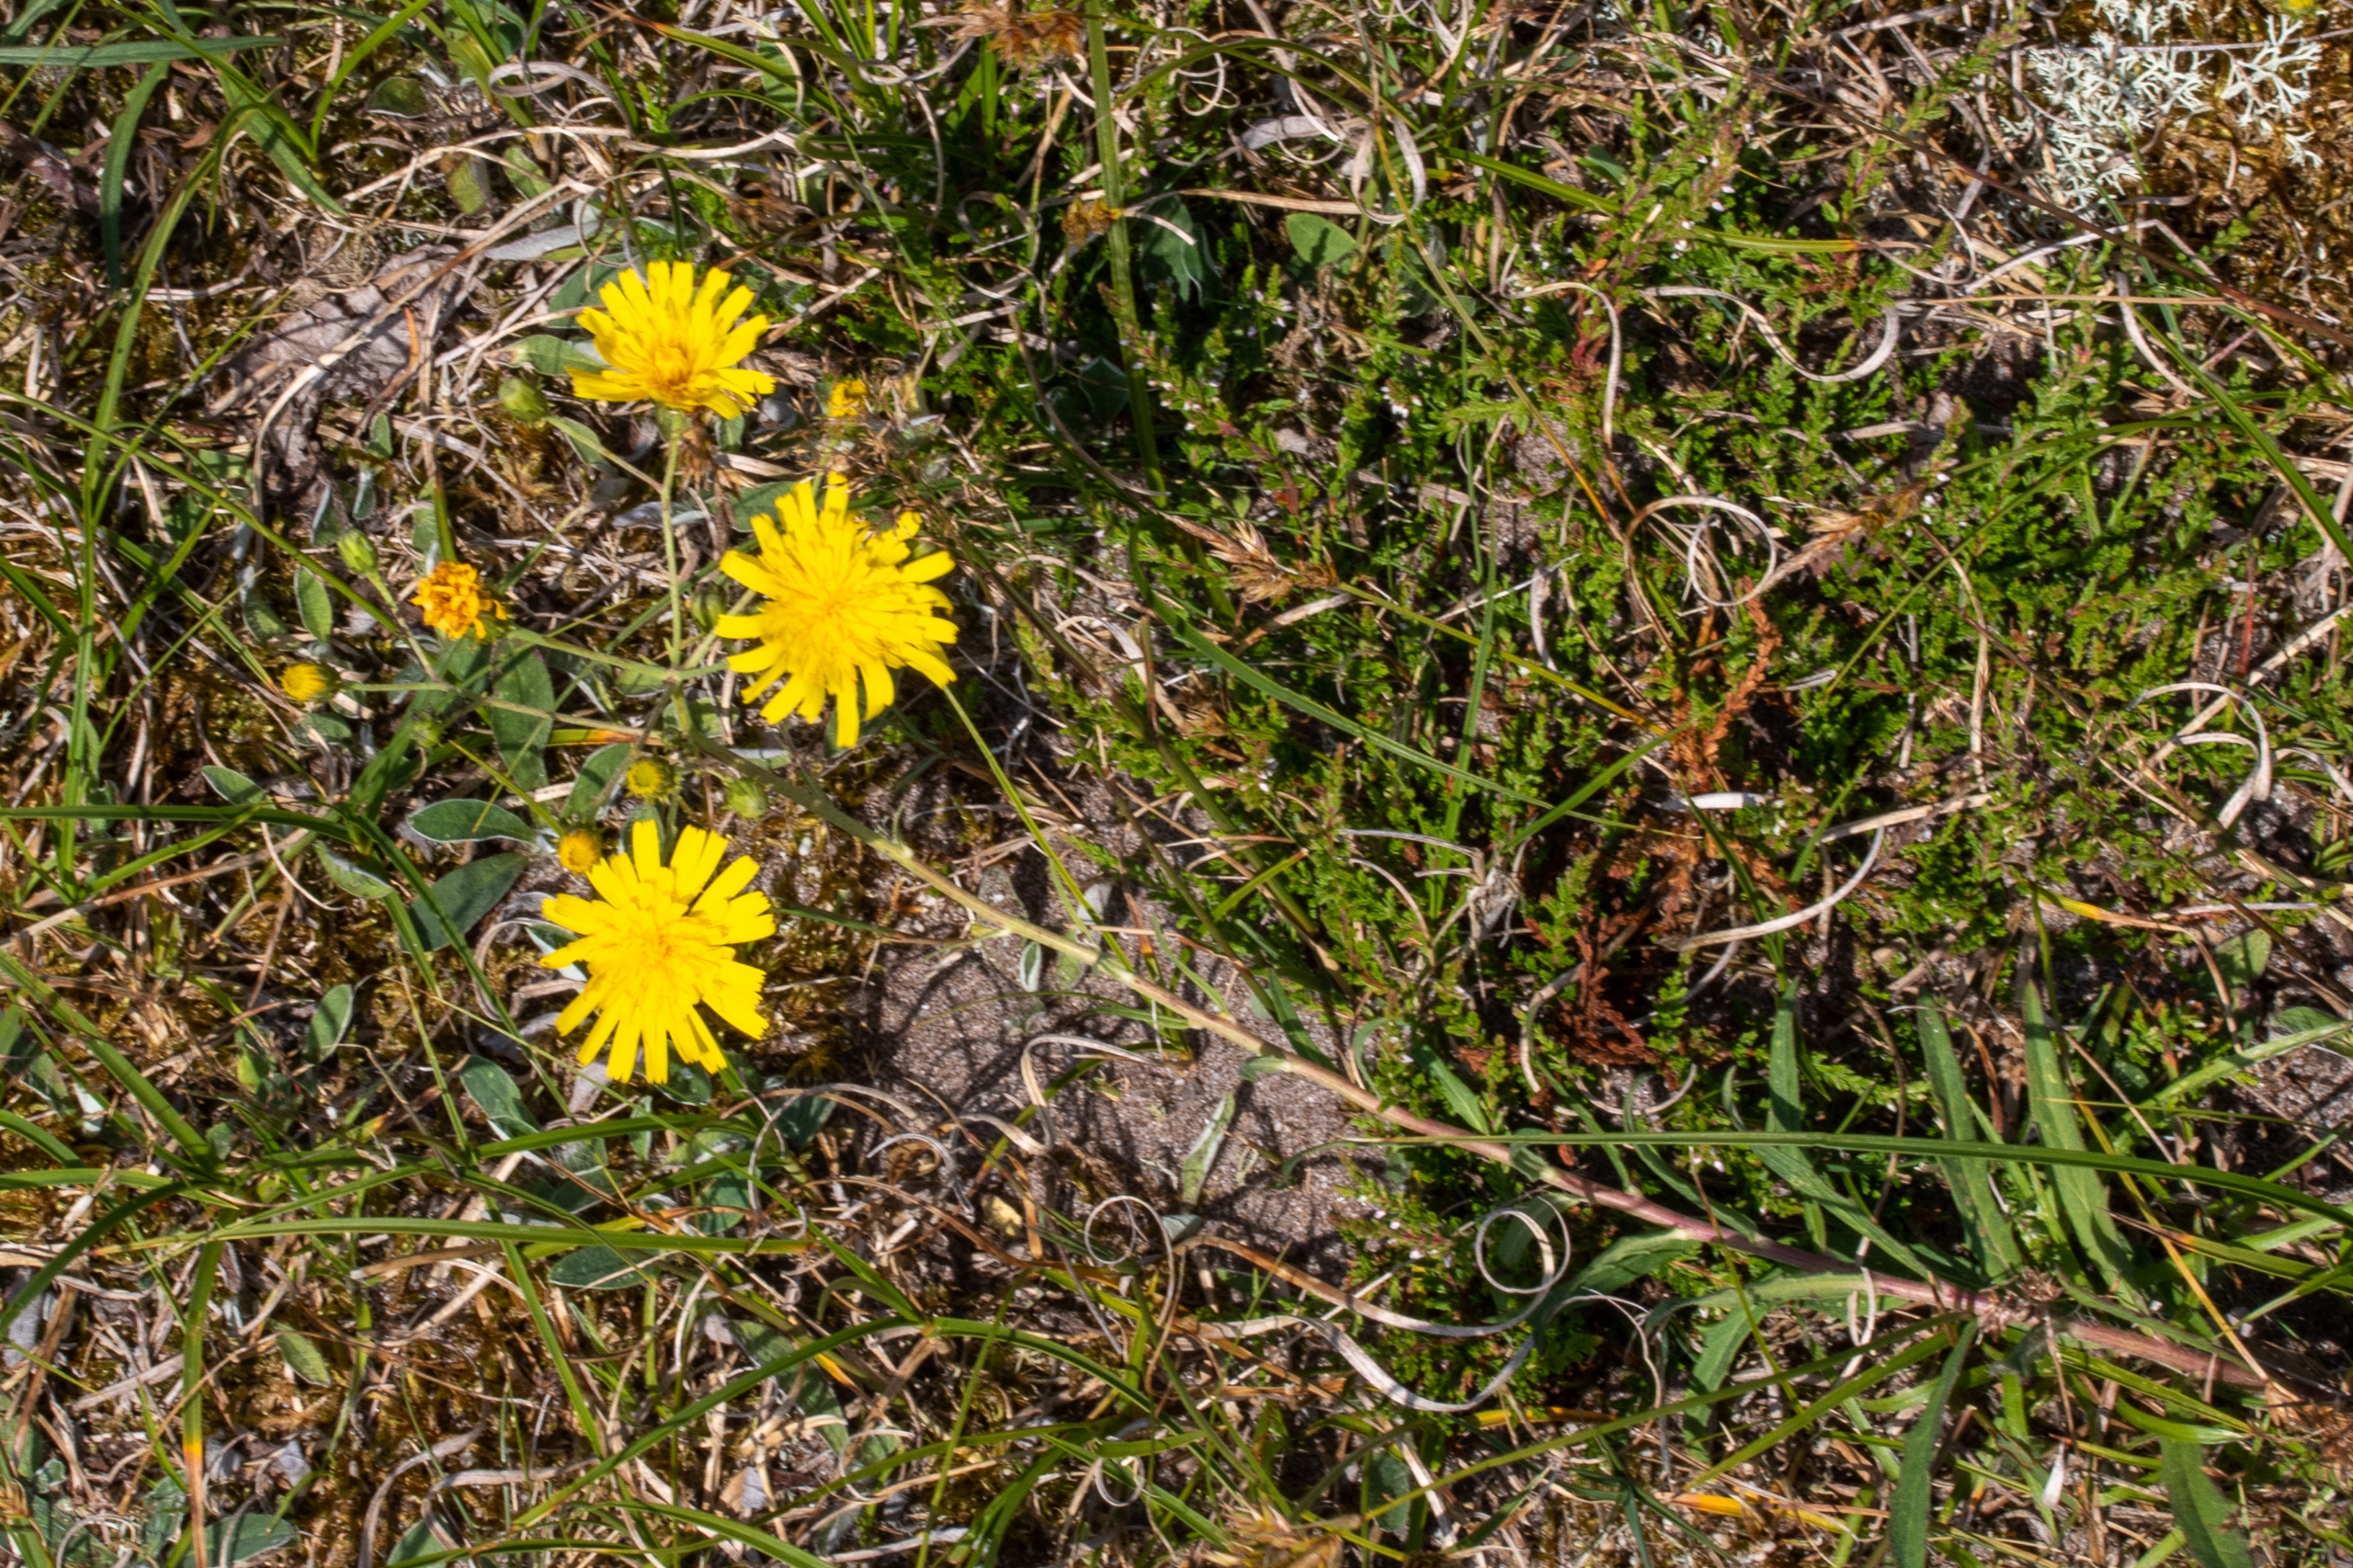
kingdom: Plantae
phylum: Tracheophyta
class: Magnoliopsida
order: Asterales
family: Asteraceae
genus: Hieracium
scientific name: Hieracium umbellatum
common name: Smalbladet høgeurt
